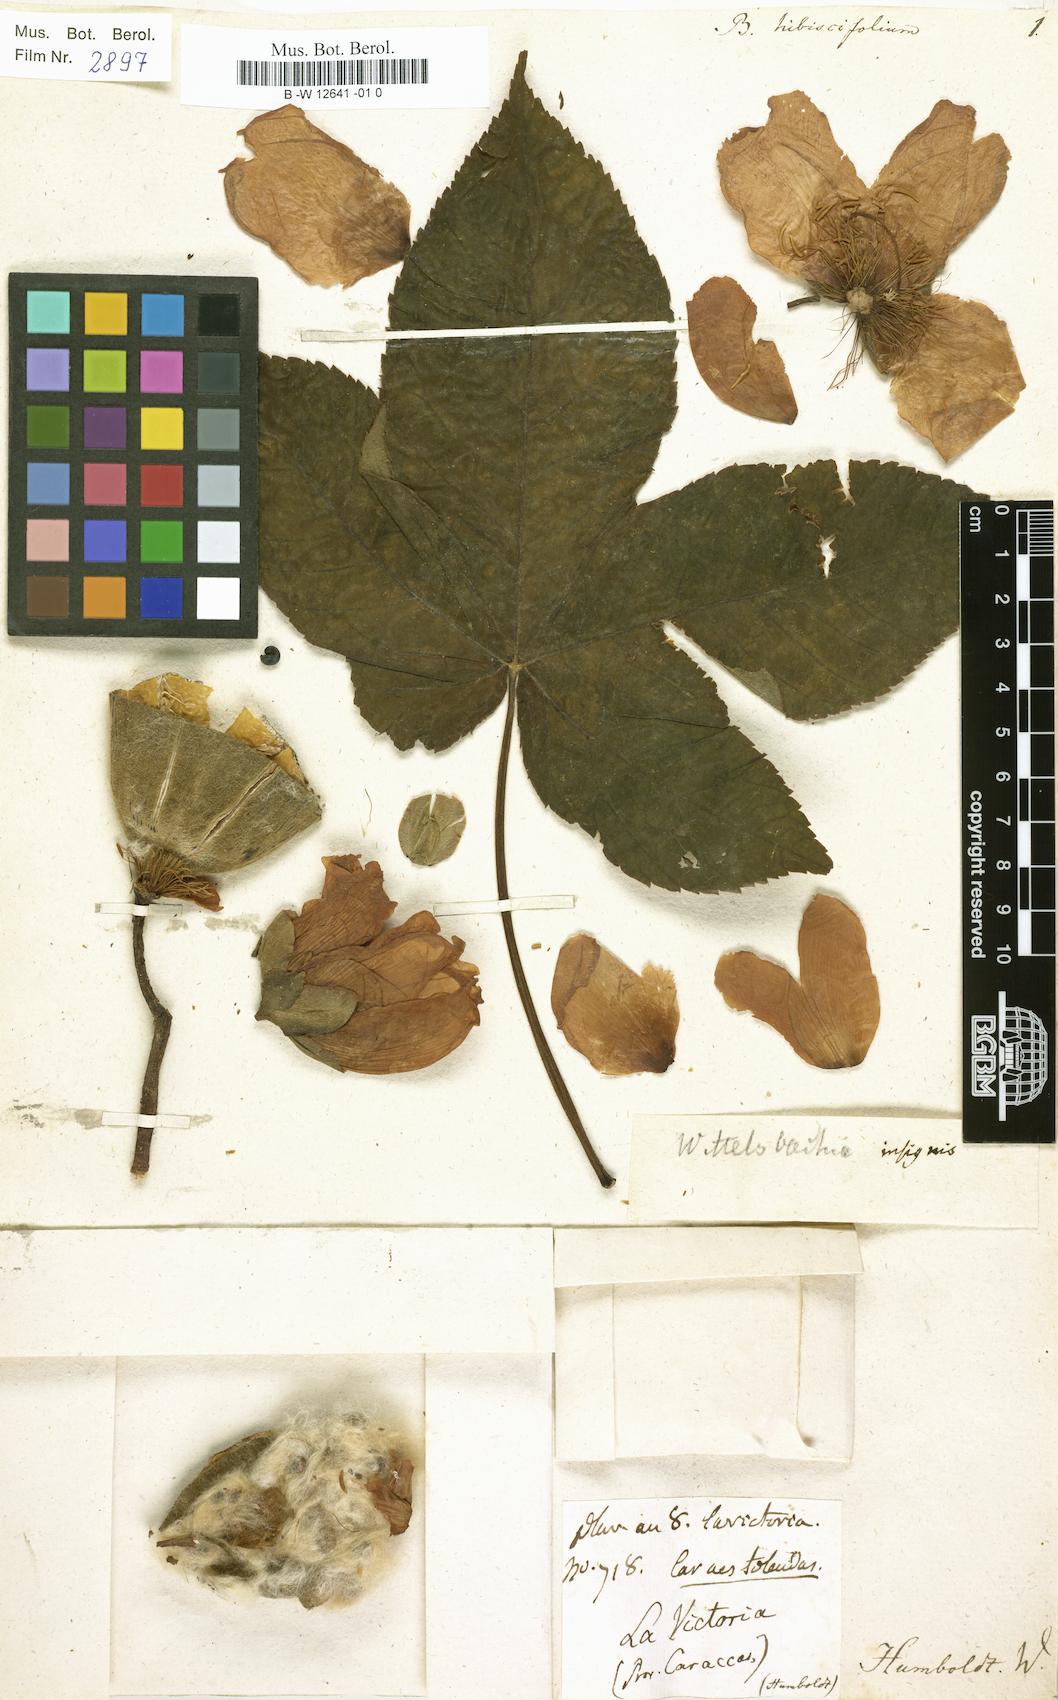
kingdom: Plantae
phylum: Tracheophyta
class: Magnoliopsida
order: Malvales
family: Cochlospermaceae
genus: Cochlospermum
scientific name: Cochlospermum vitifolium
